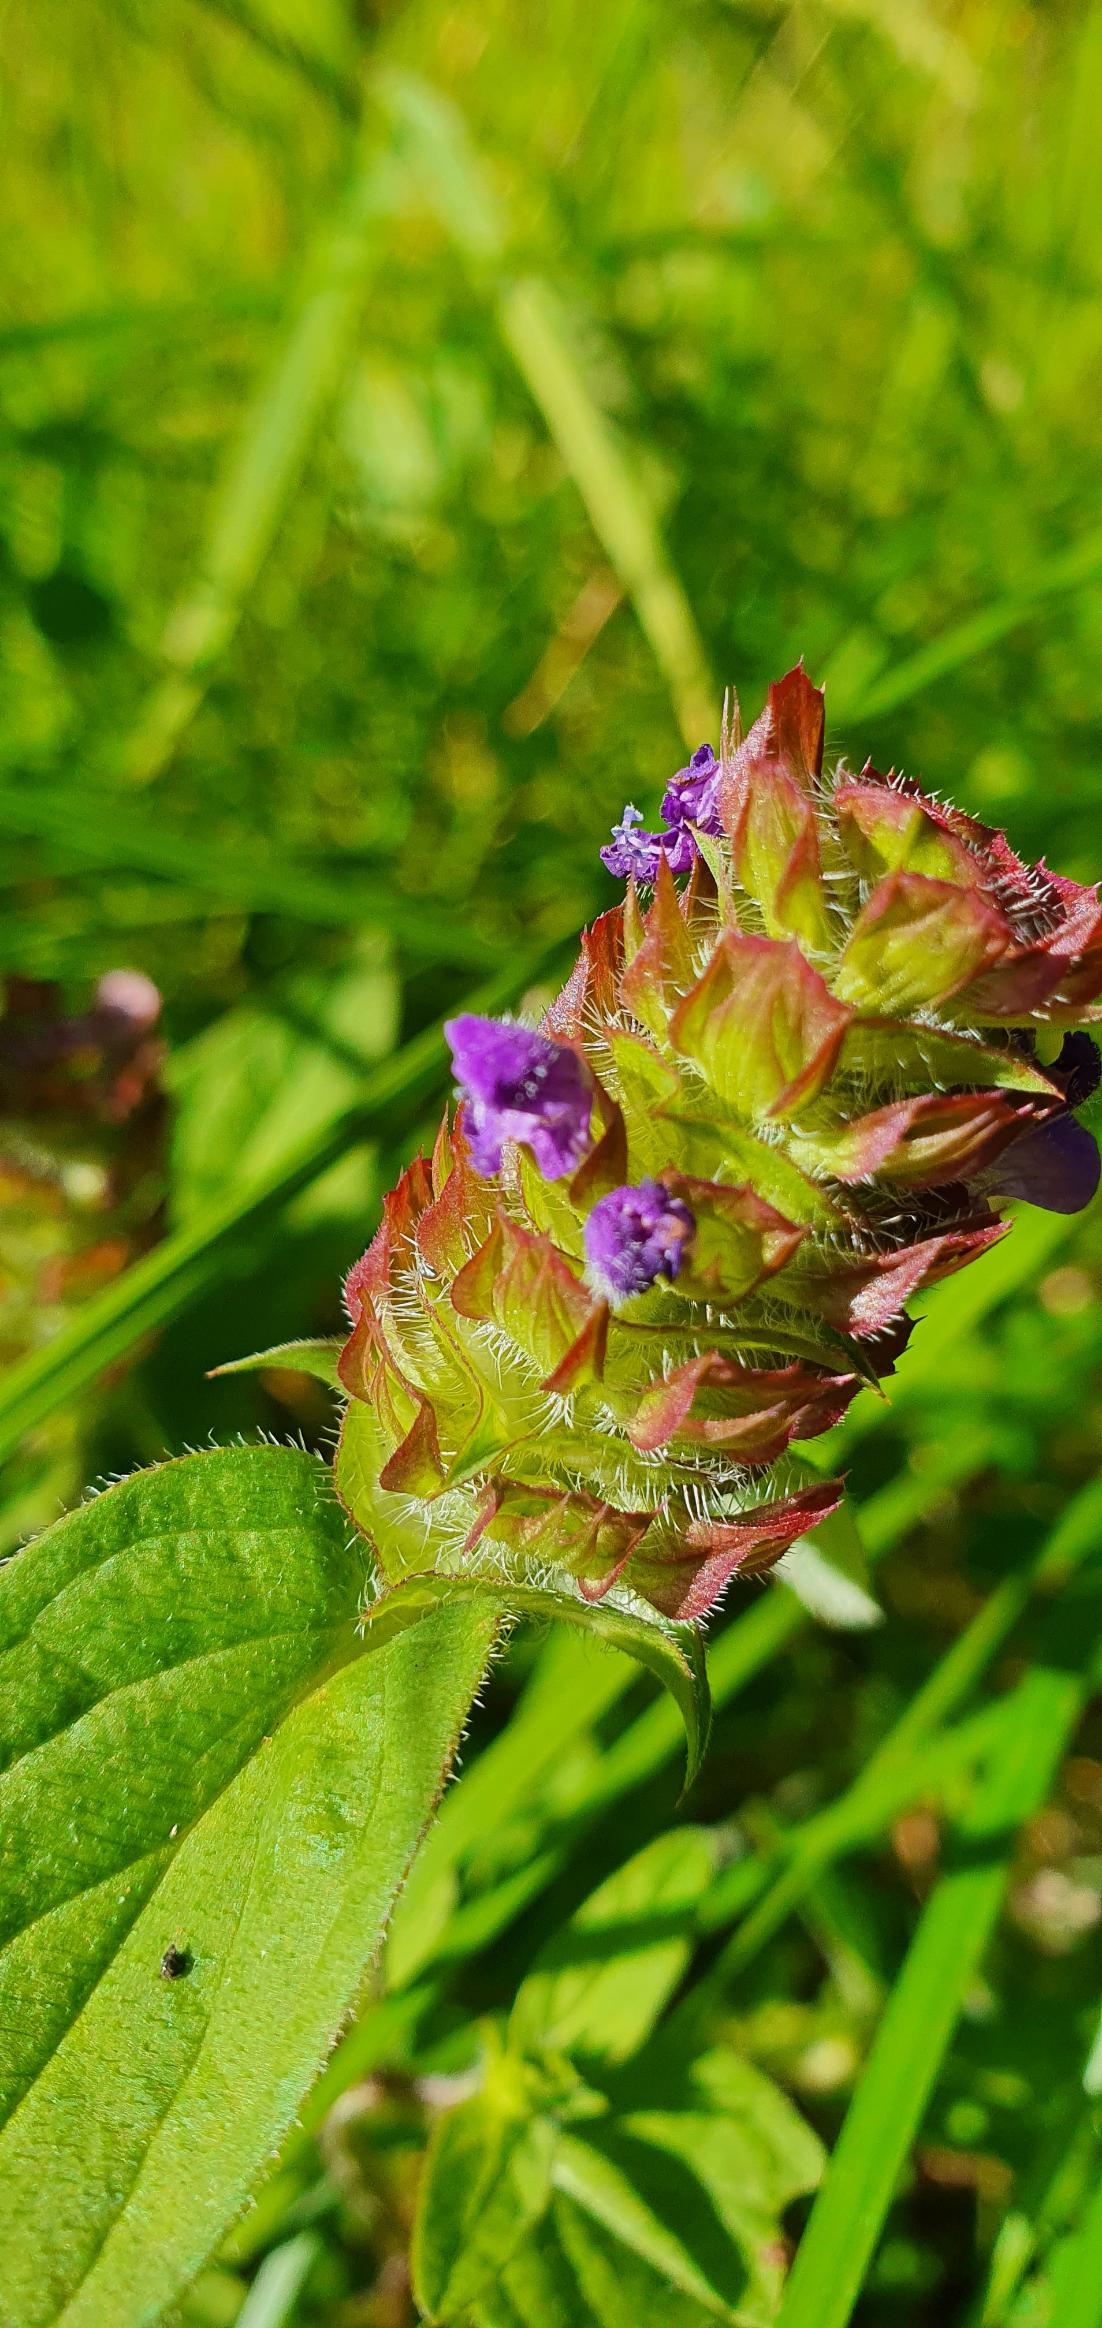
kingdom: Plantae
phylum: Tracheophyta
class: Magnoliopsida
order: Lamiales
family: Lamiaceae
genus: Prunella
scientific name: Prunella vulgaris
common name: Almindelig brunelle
